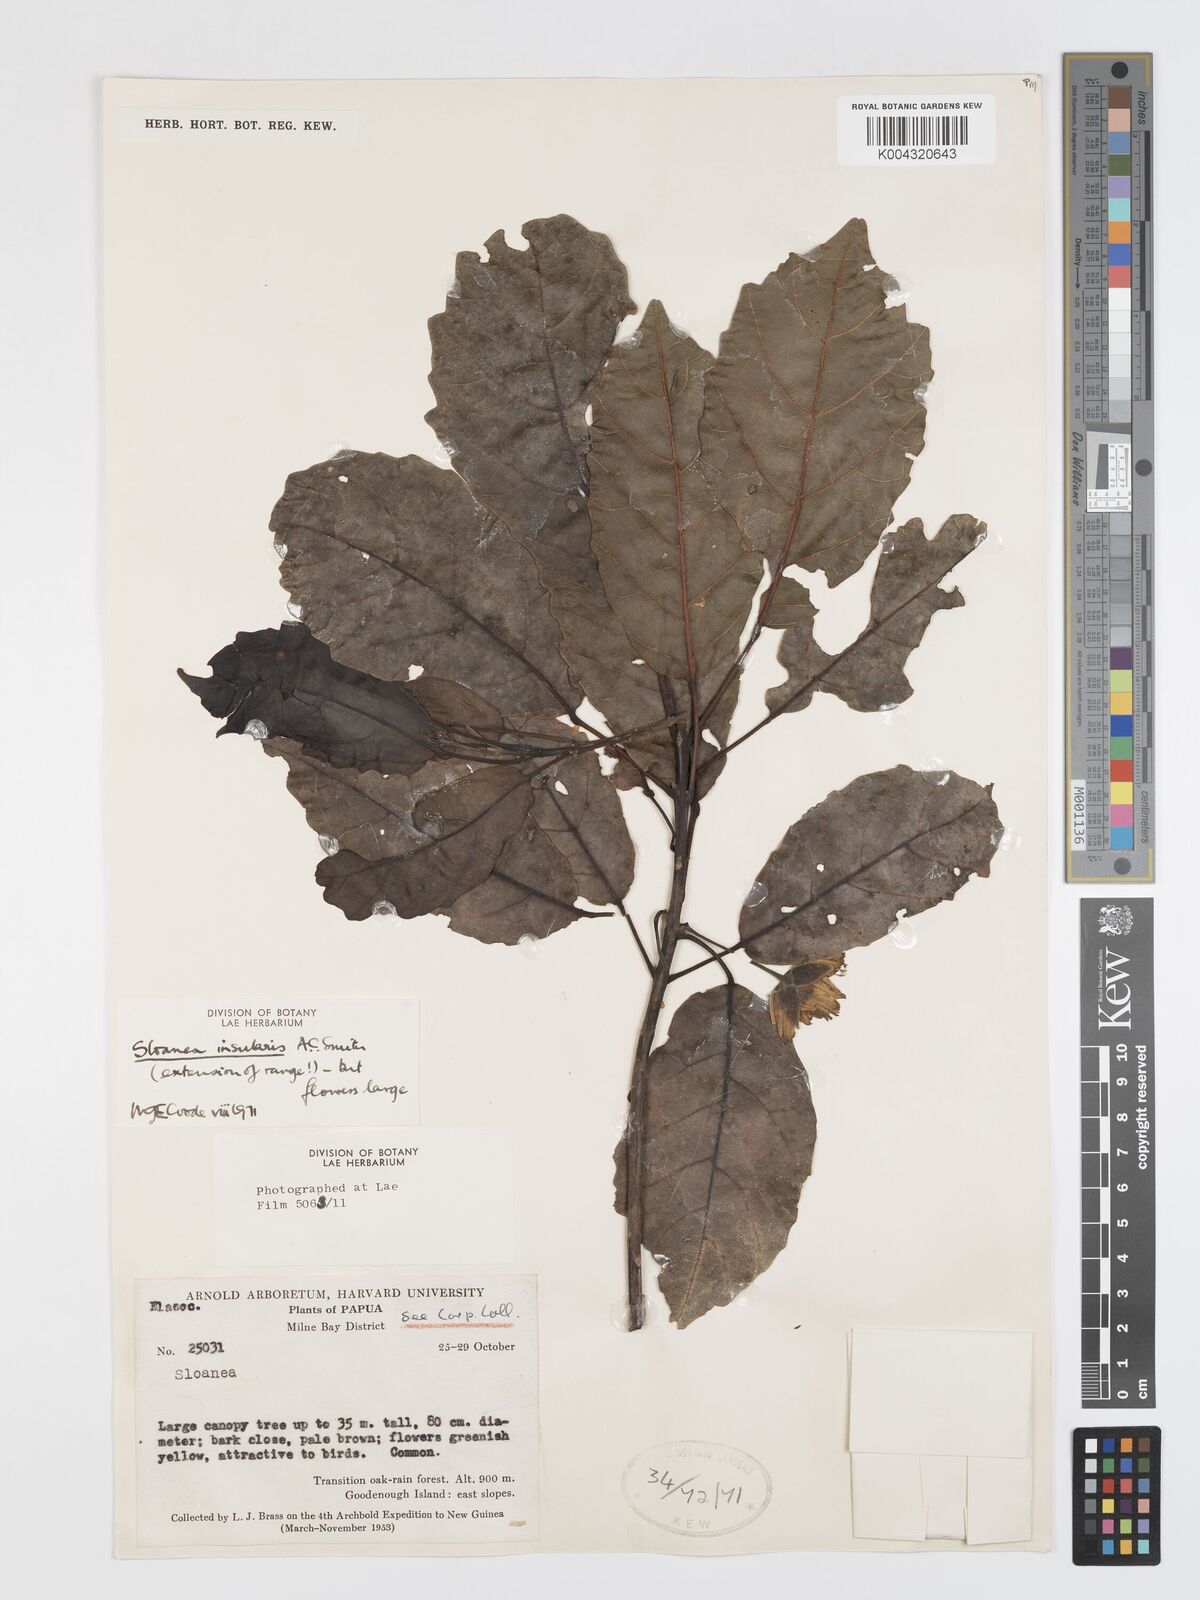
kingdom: Plantae
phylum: Tracheophyta
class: Magnoliopsida
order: Oxalidales
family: Elaeocarpaceae
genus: Sloanea
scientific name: Sloanea insularis
